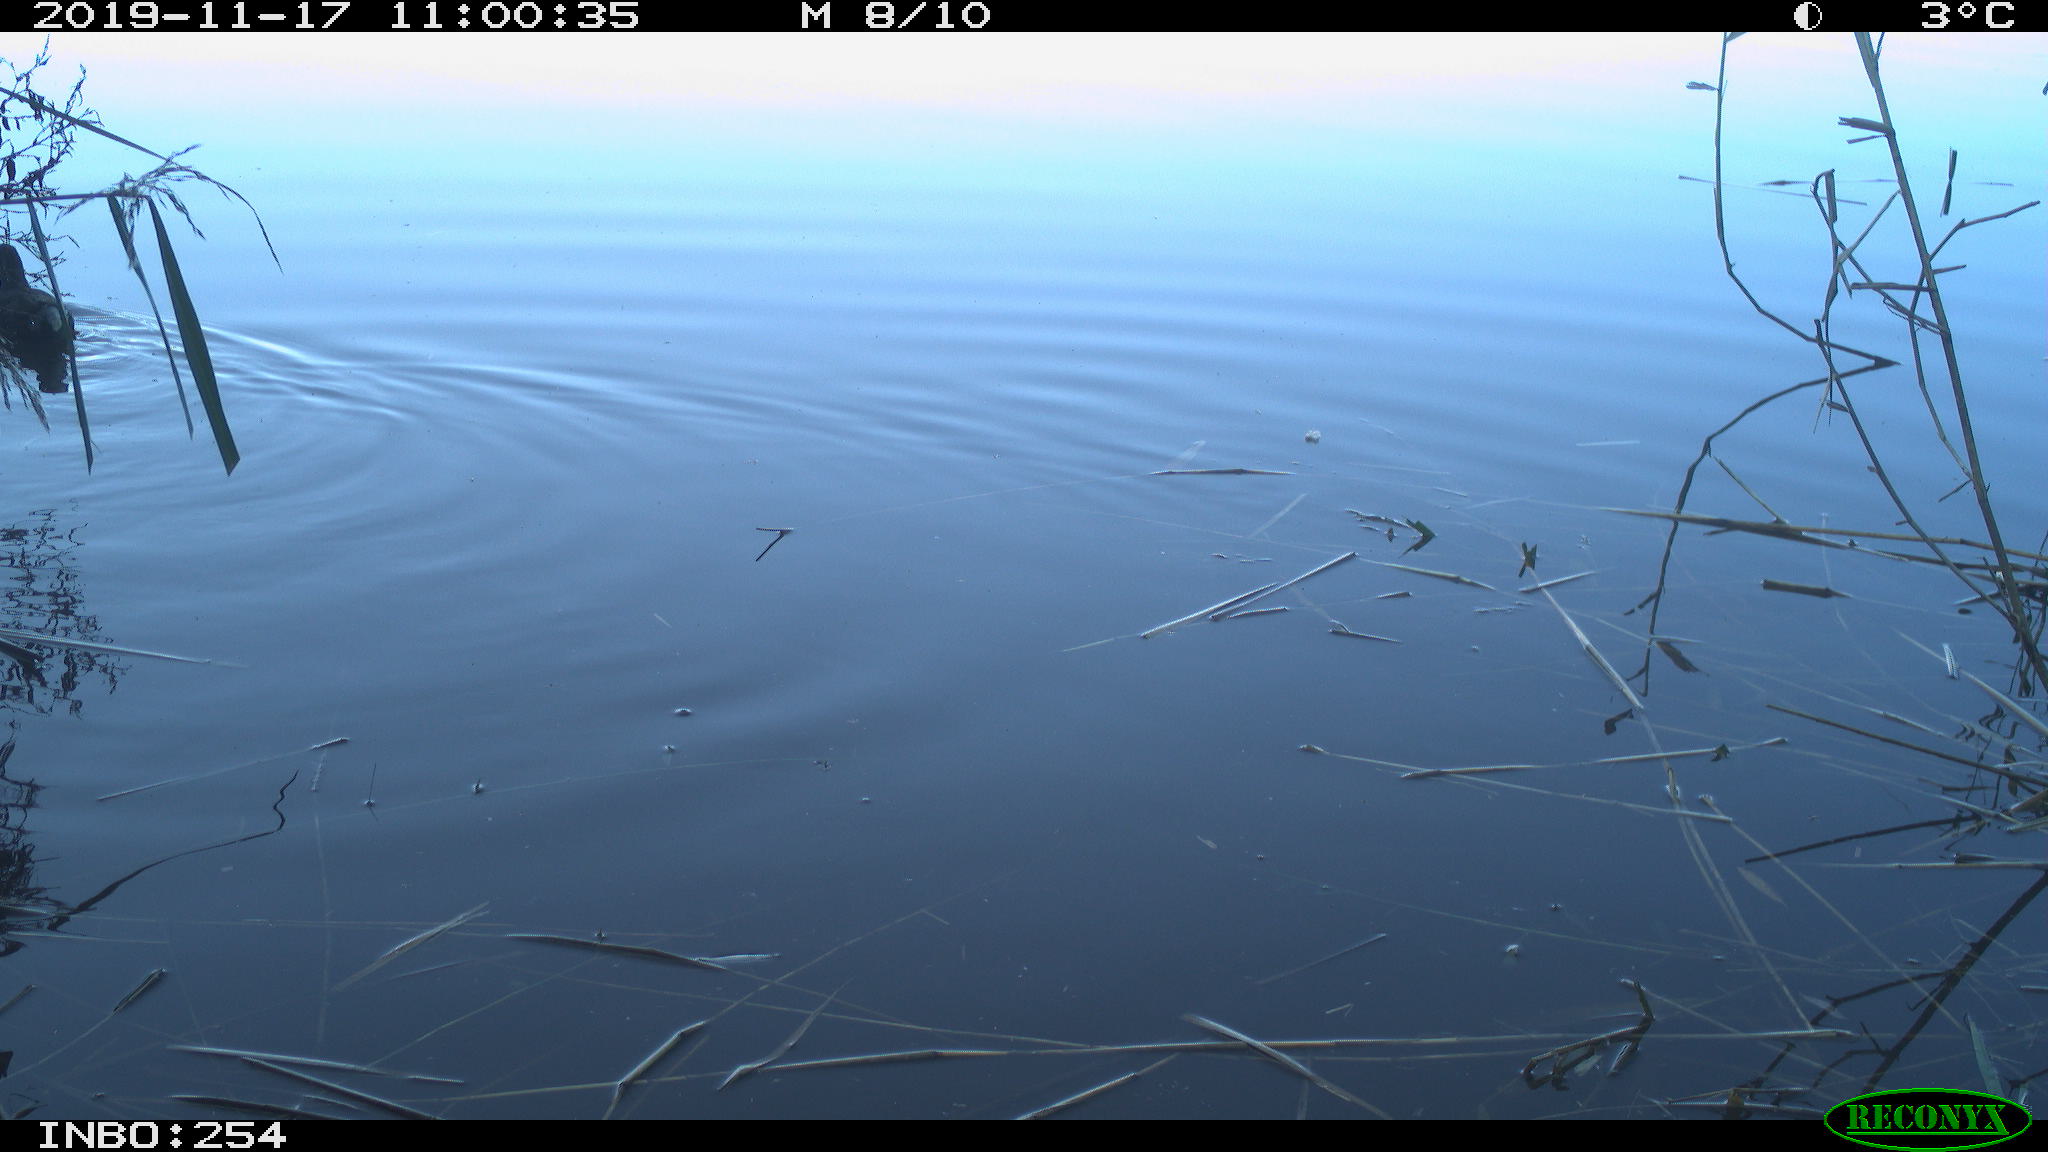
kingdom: Animalia
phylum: Chordata
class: Aves
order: Gruiformes
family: Rallidae
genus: Gallinula
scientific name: Gallinula chloropus
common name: Common moorhen
